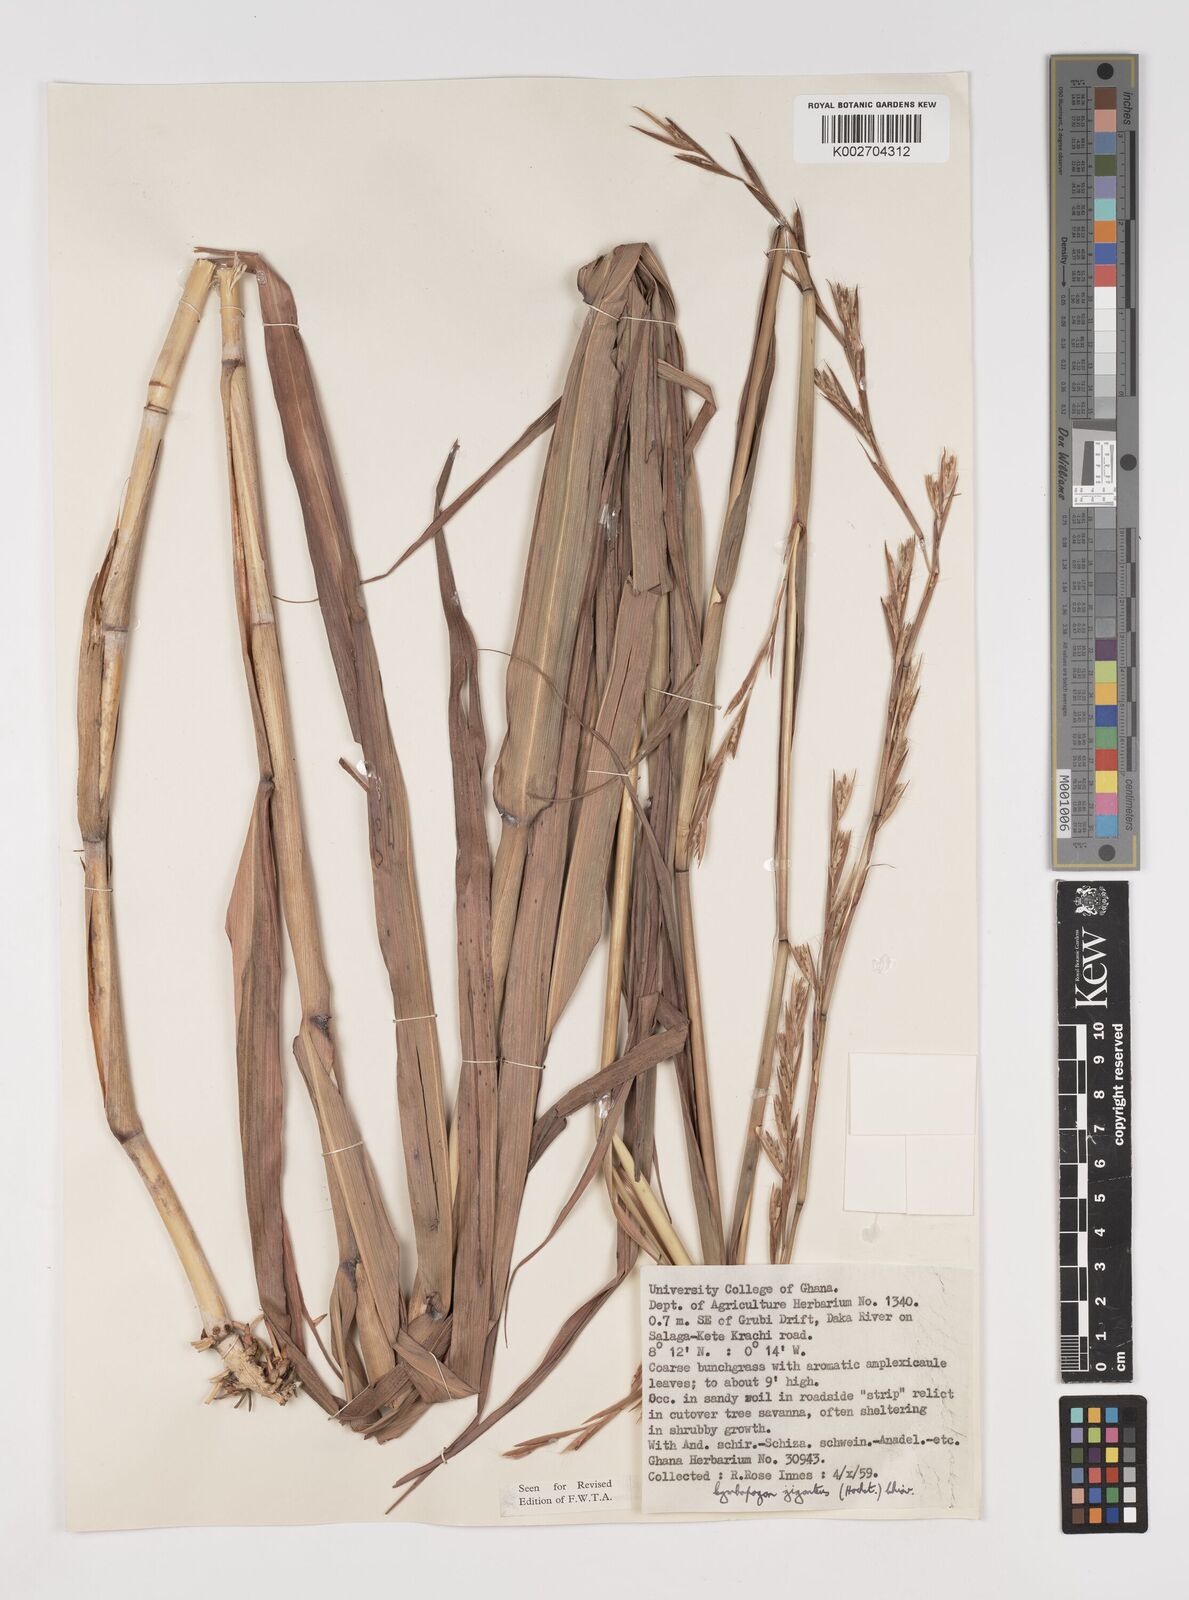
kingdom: Plantae
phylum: Tracheophyta
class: Liliopsida
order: Poales
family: Poaceae
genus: Cymbopogon
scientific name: Cymbopogon giganteus
